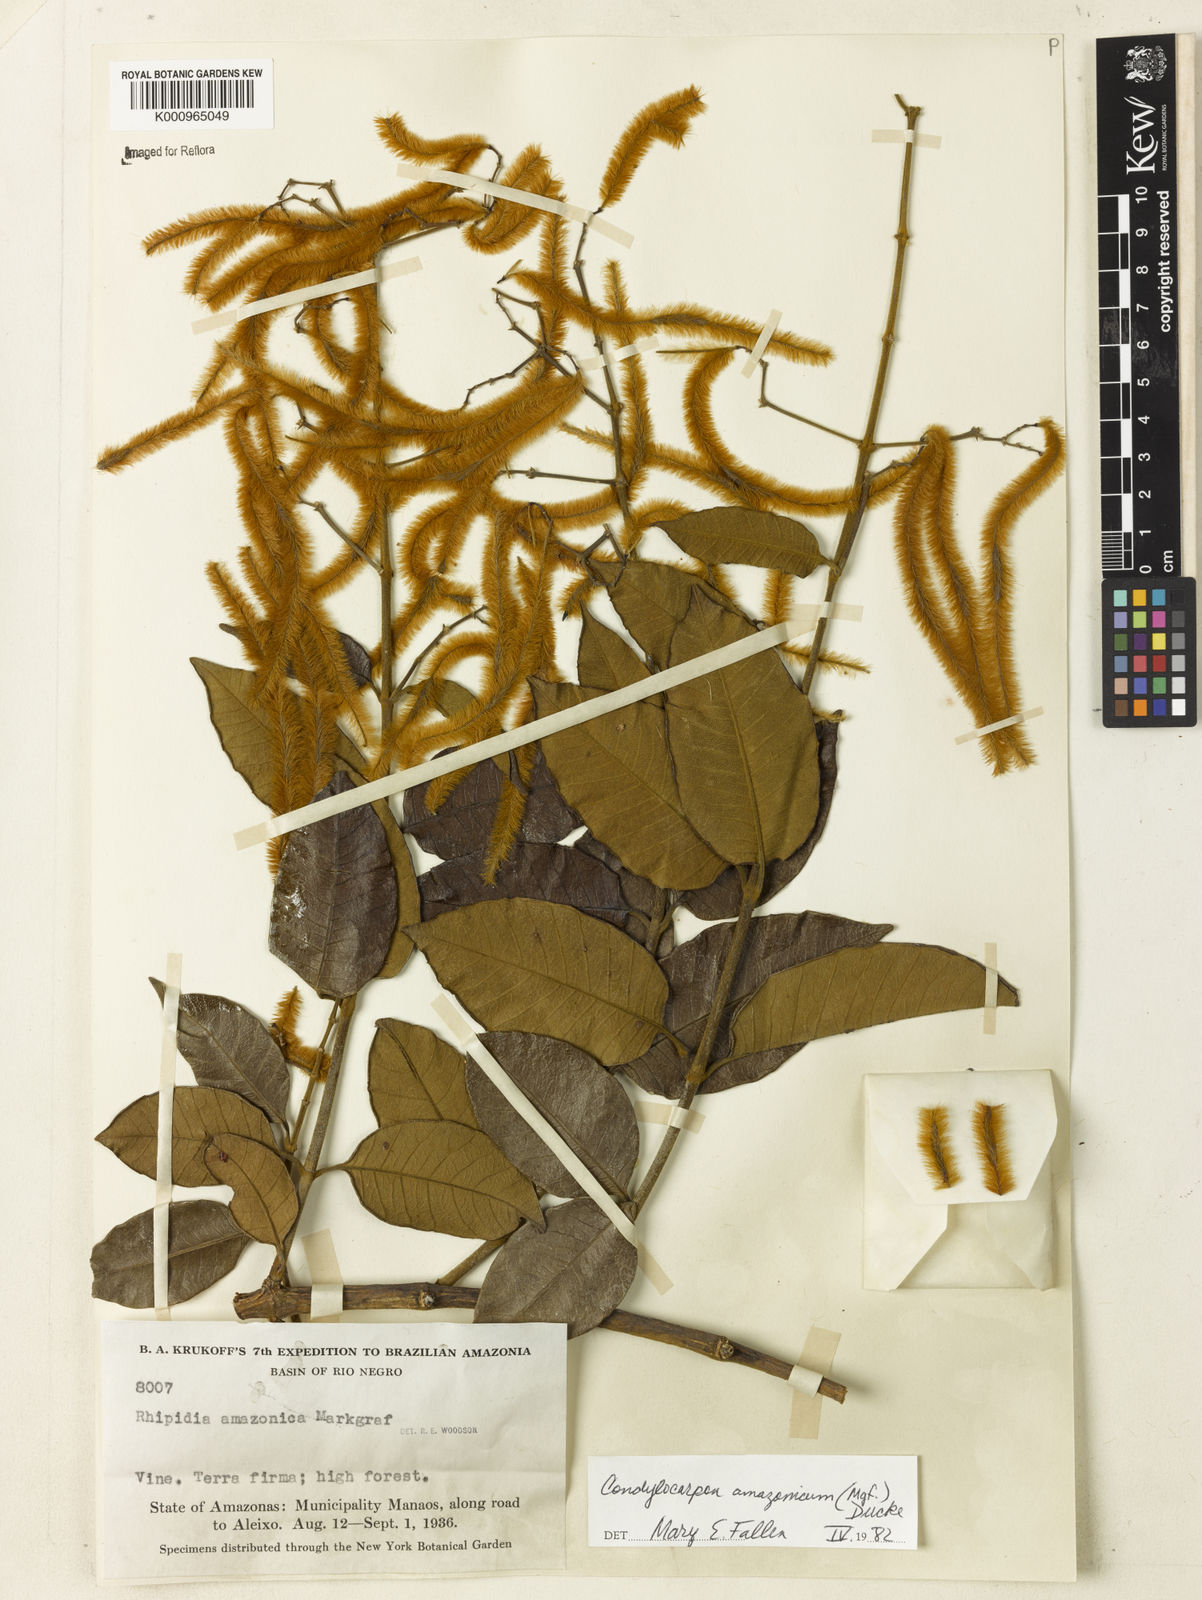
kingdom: Plantae
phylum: Tracheophyta
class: Magnoliopsida
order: Gentianales
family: Apocynaceae
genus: Condylocarpon
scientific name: Condylocarpon amazonicum
